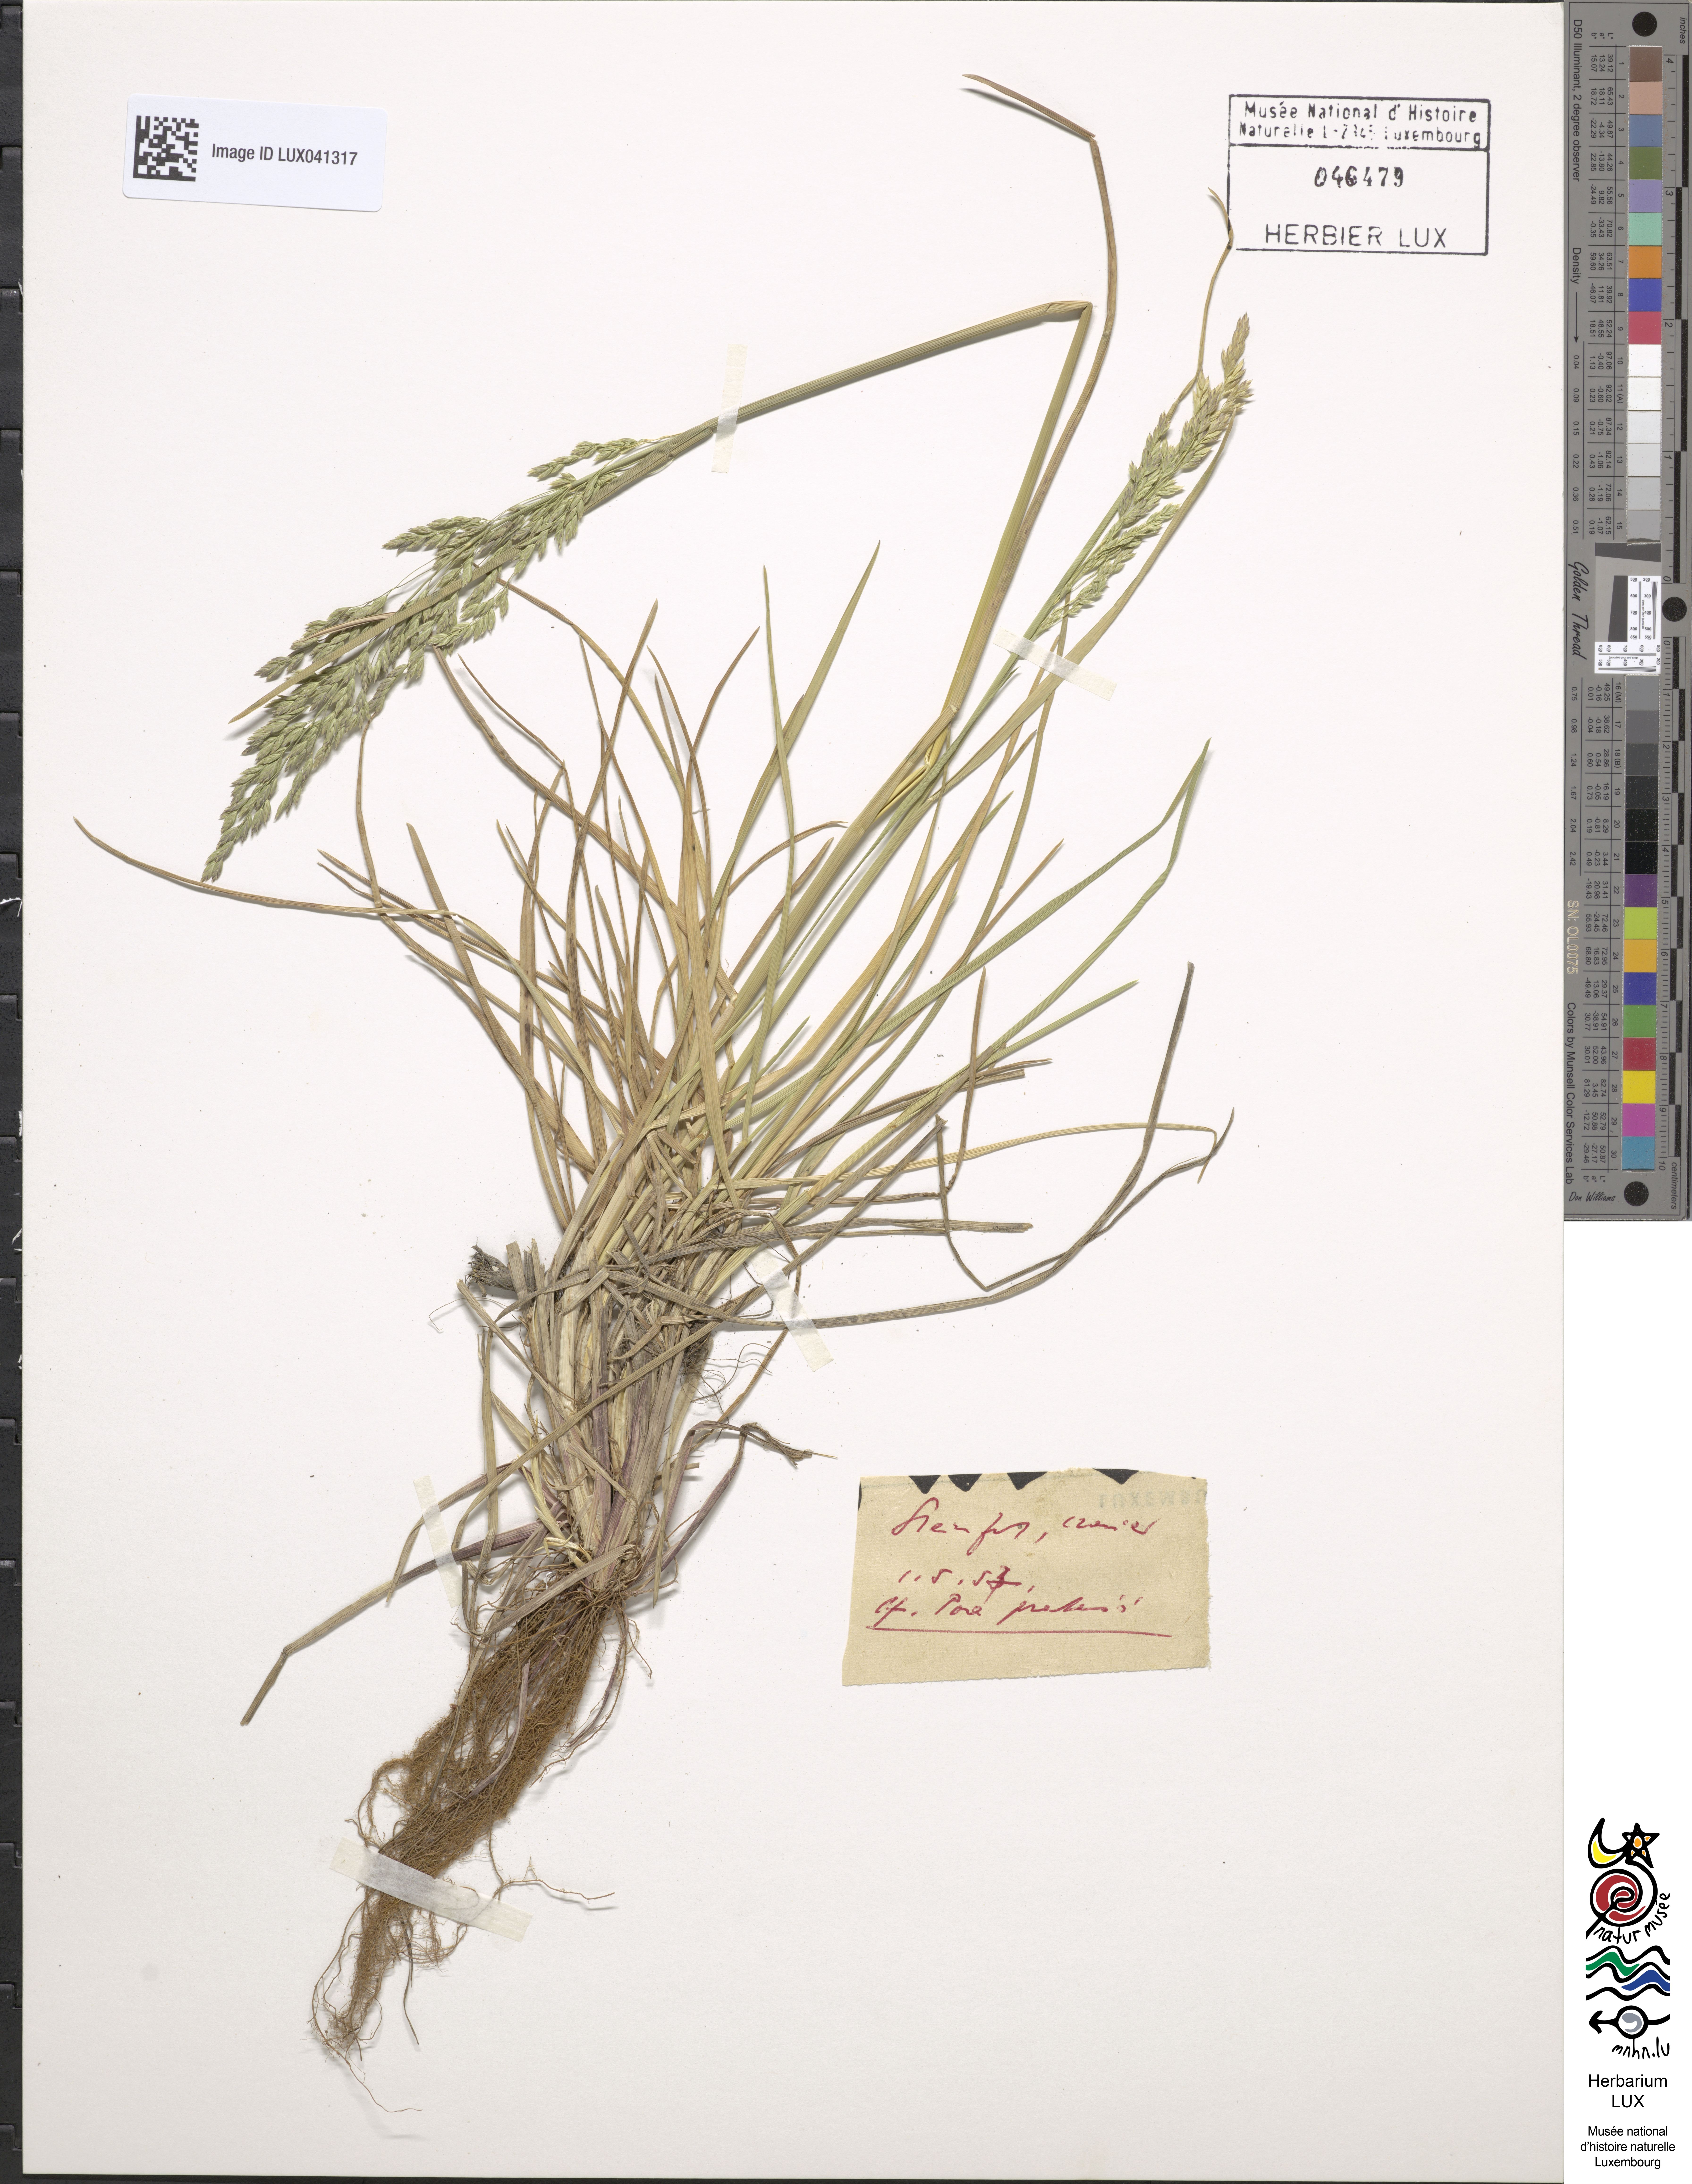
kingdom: Plantae
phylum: Tracheophyta
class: Liliopsida
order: Poales
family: Poaceae
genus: Poa
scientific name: Poa pratensis
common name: Kentucky bluegrass
